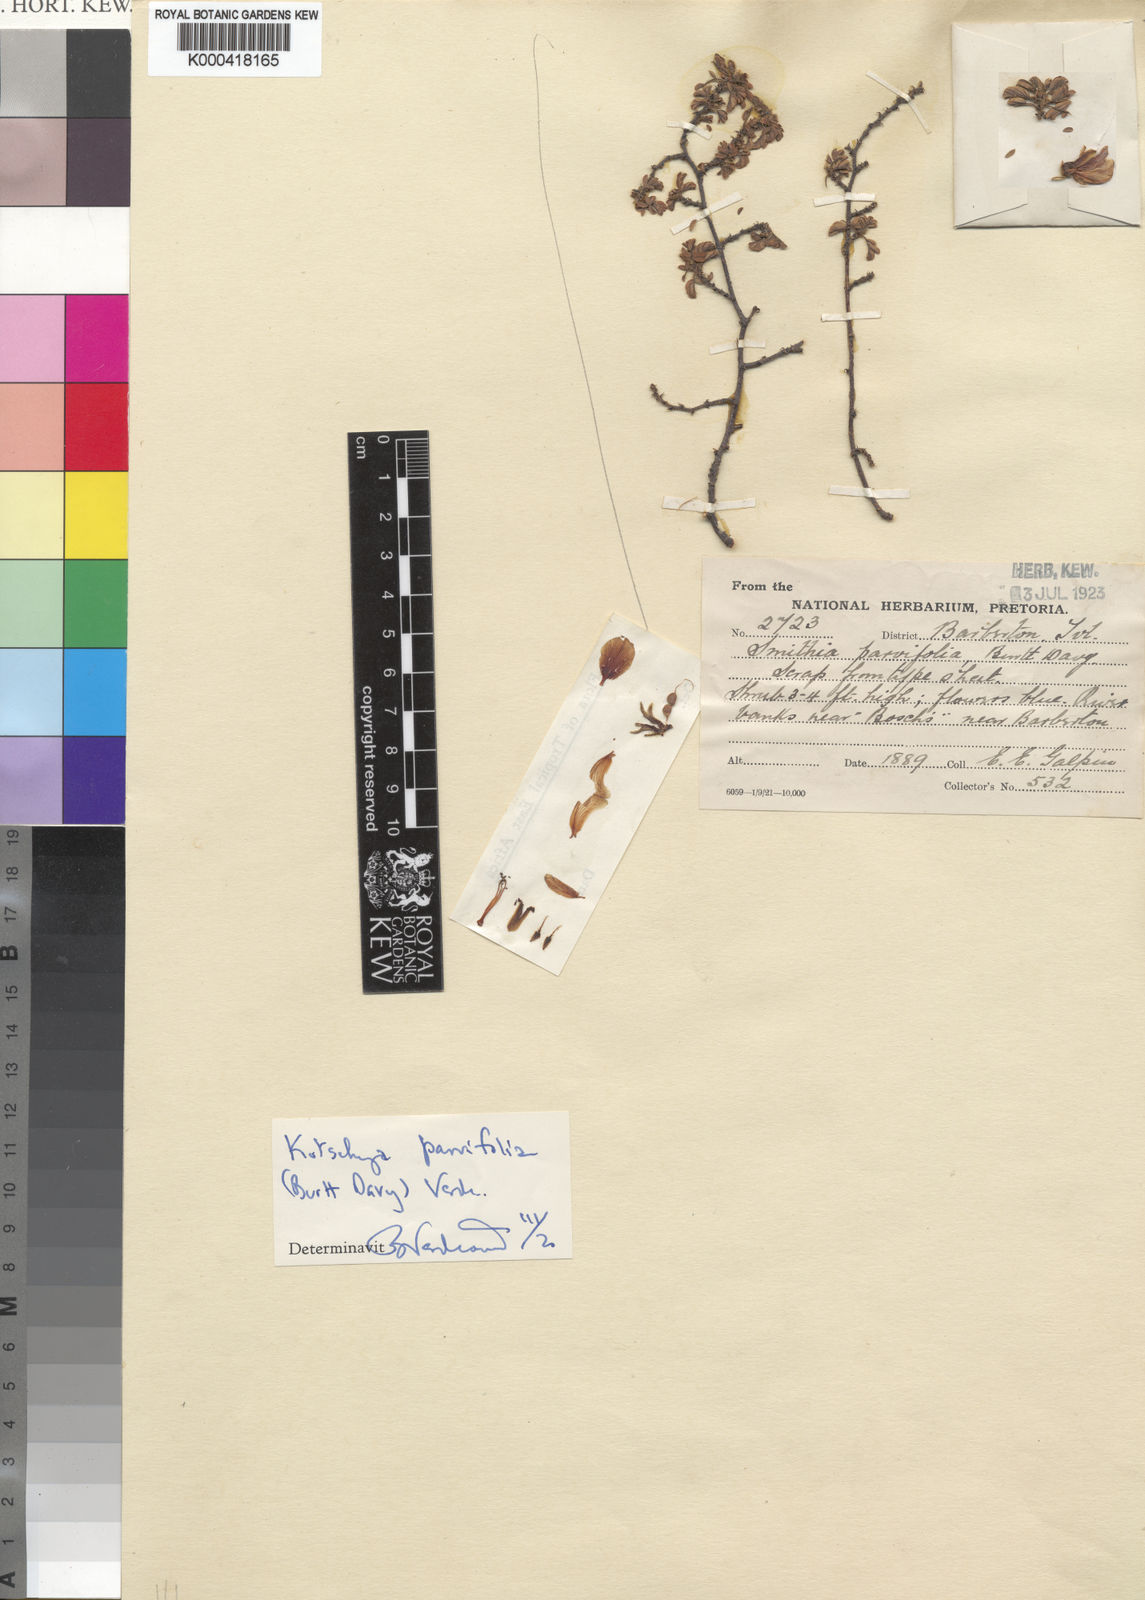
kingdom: Plantae
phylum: Tracheophyta
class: Magnoliopsida
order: Fabales
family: Fabaceae
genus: Kotschya
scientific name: Kotschya parvifolia
